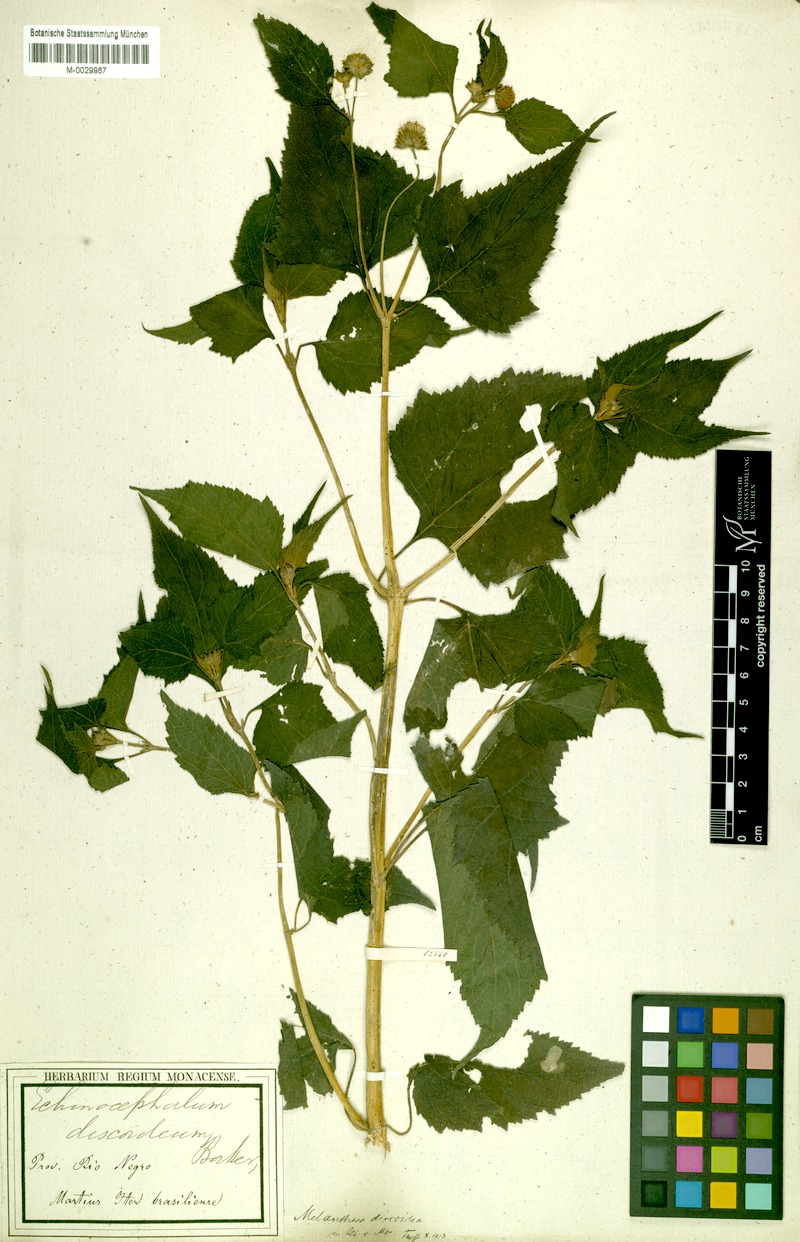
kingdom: Plantae
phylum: Tracheophyta
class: Magnoliopsida
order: Asterales
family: Asteraceae
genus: Melanthera
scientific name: Melanthera nivea
